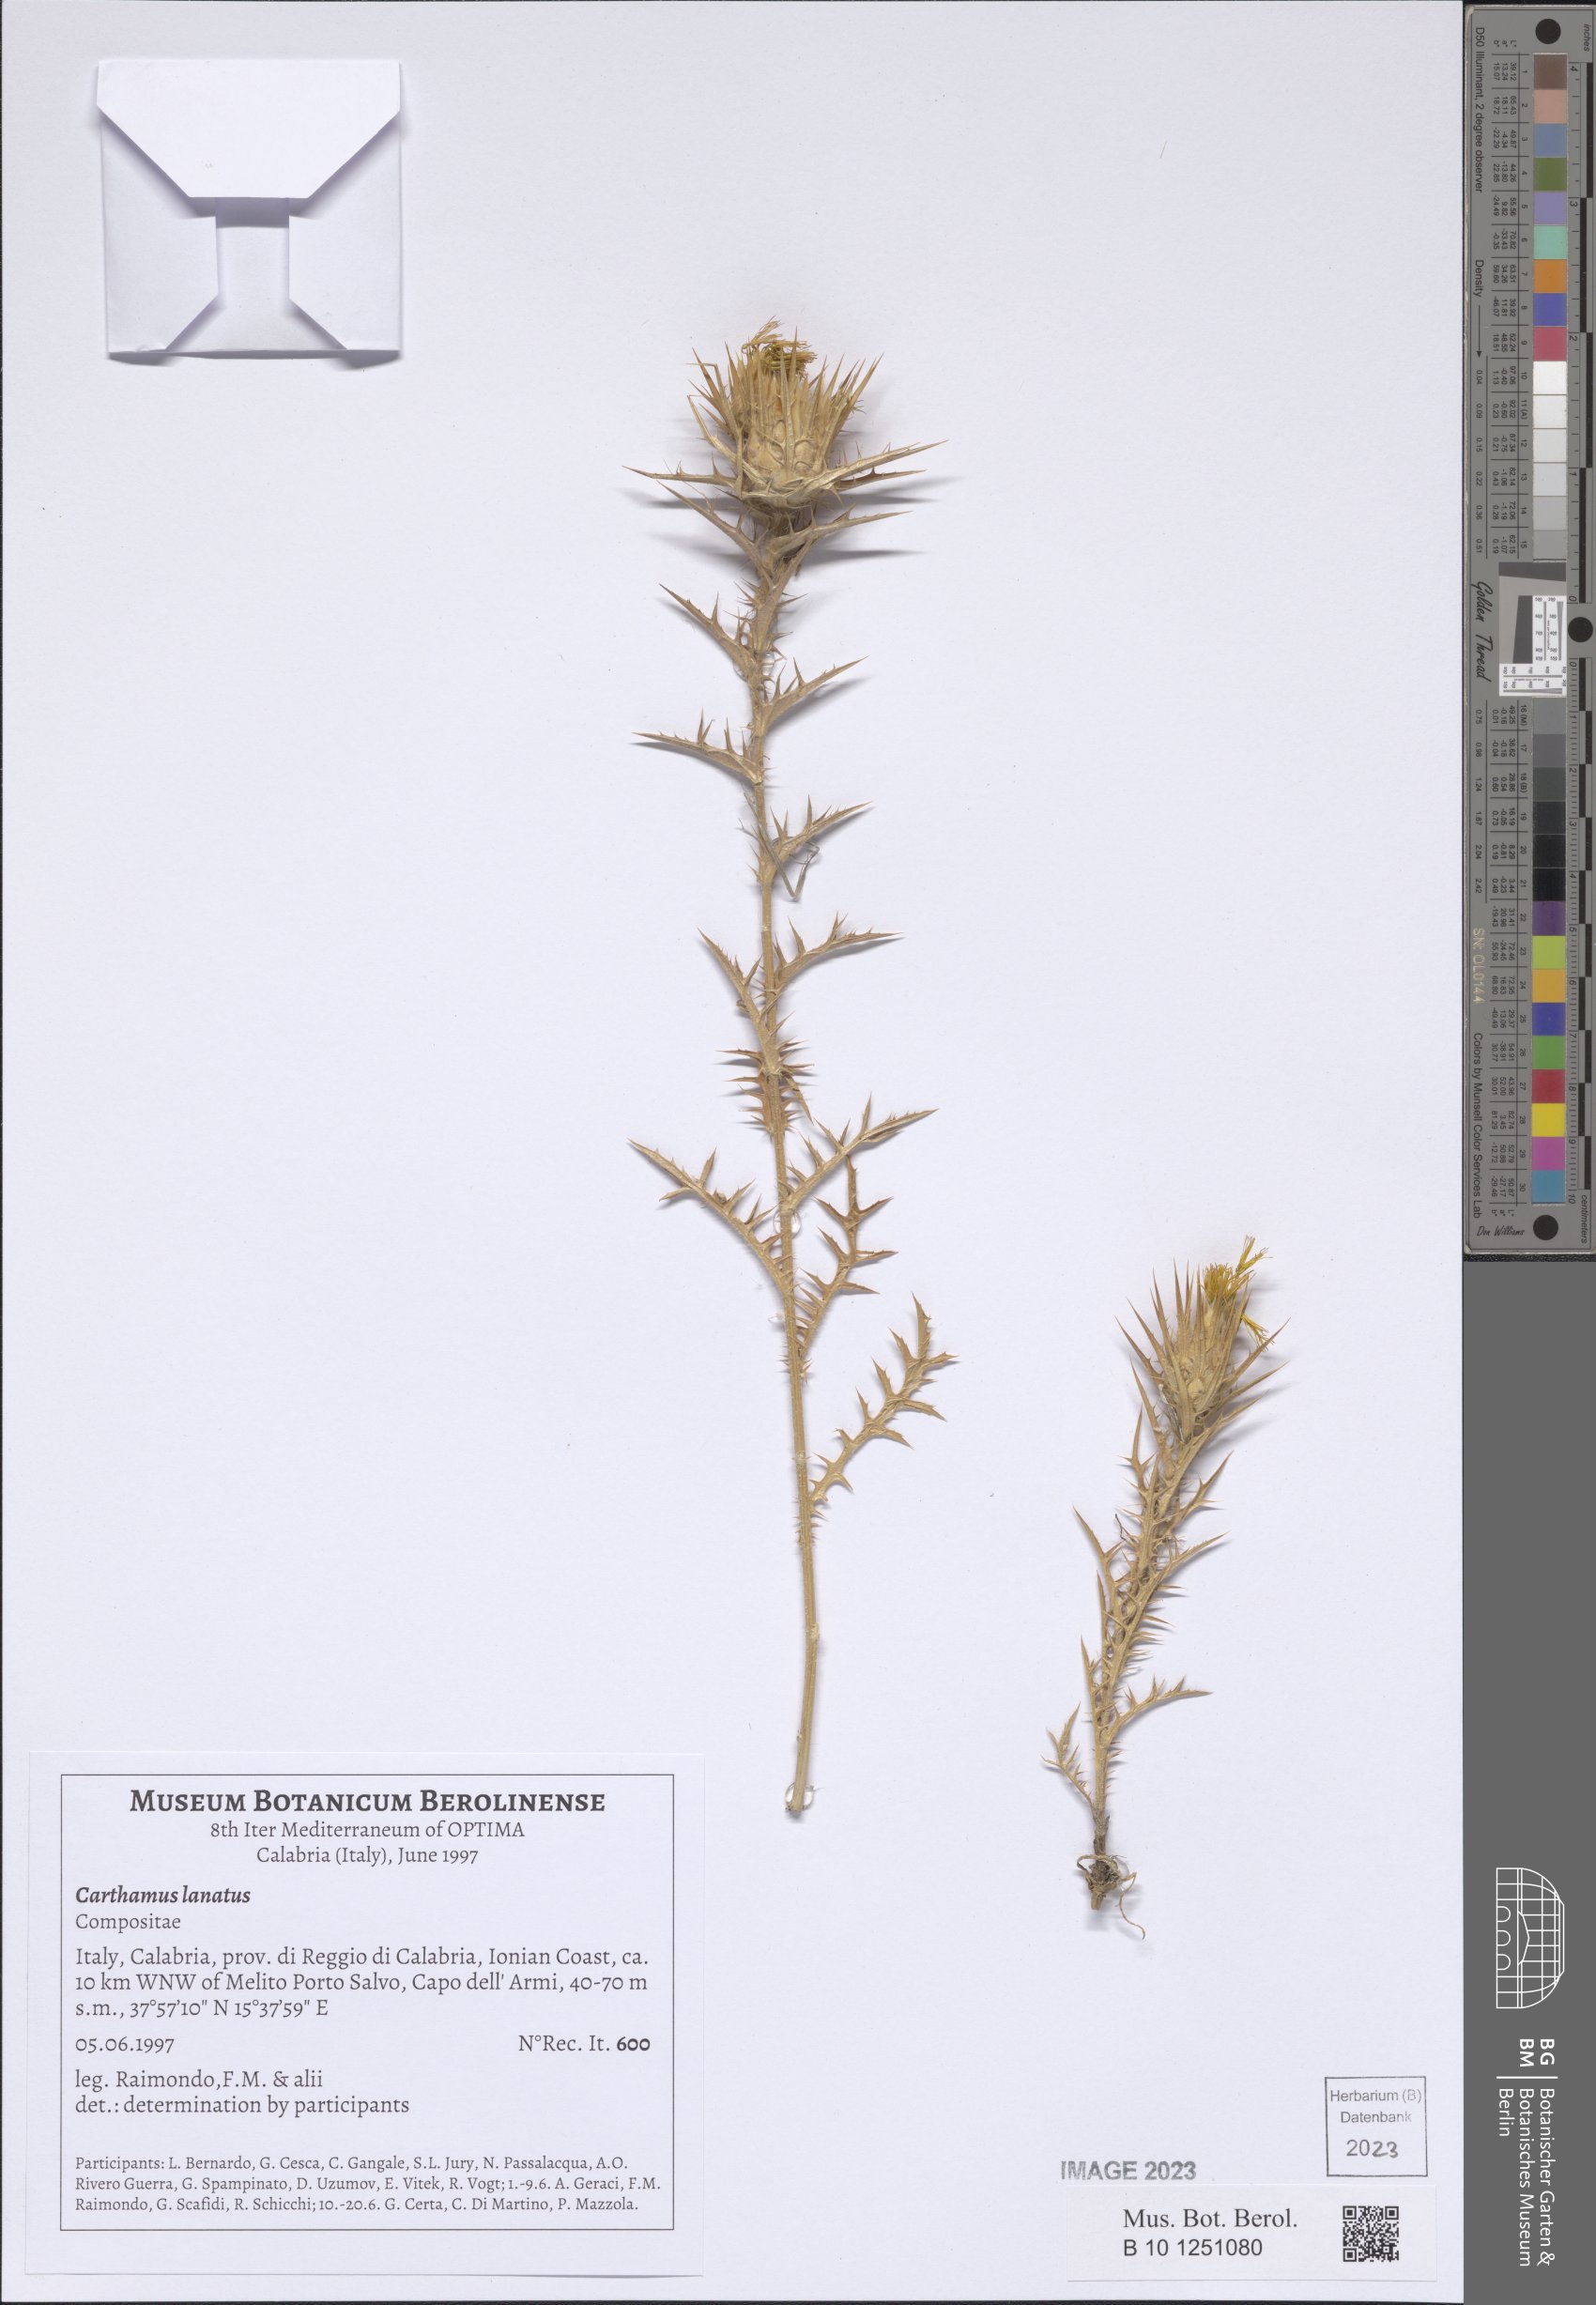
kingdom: Plantae
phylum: Tracheophyta
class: Magnoliopsida
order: Asterales
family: Asteraceae
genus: Carthamus
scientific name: Carthamus lanatus
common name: Downy safflower
